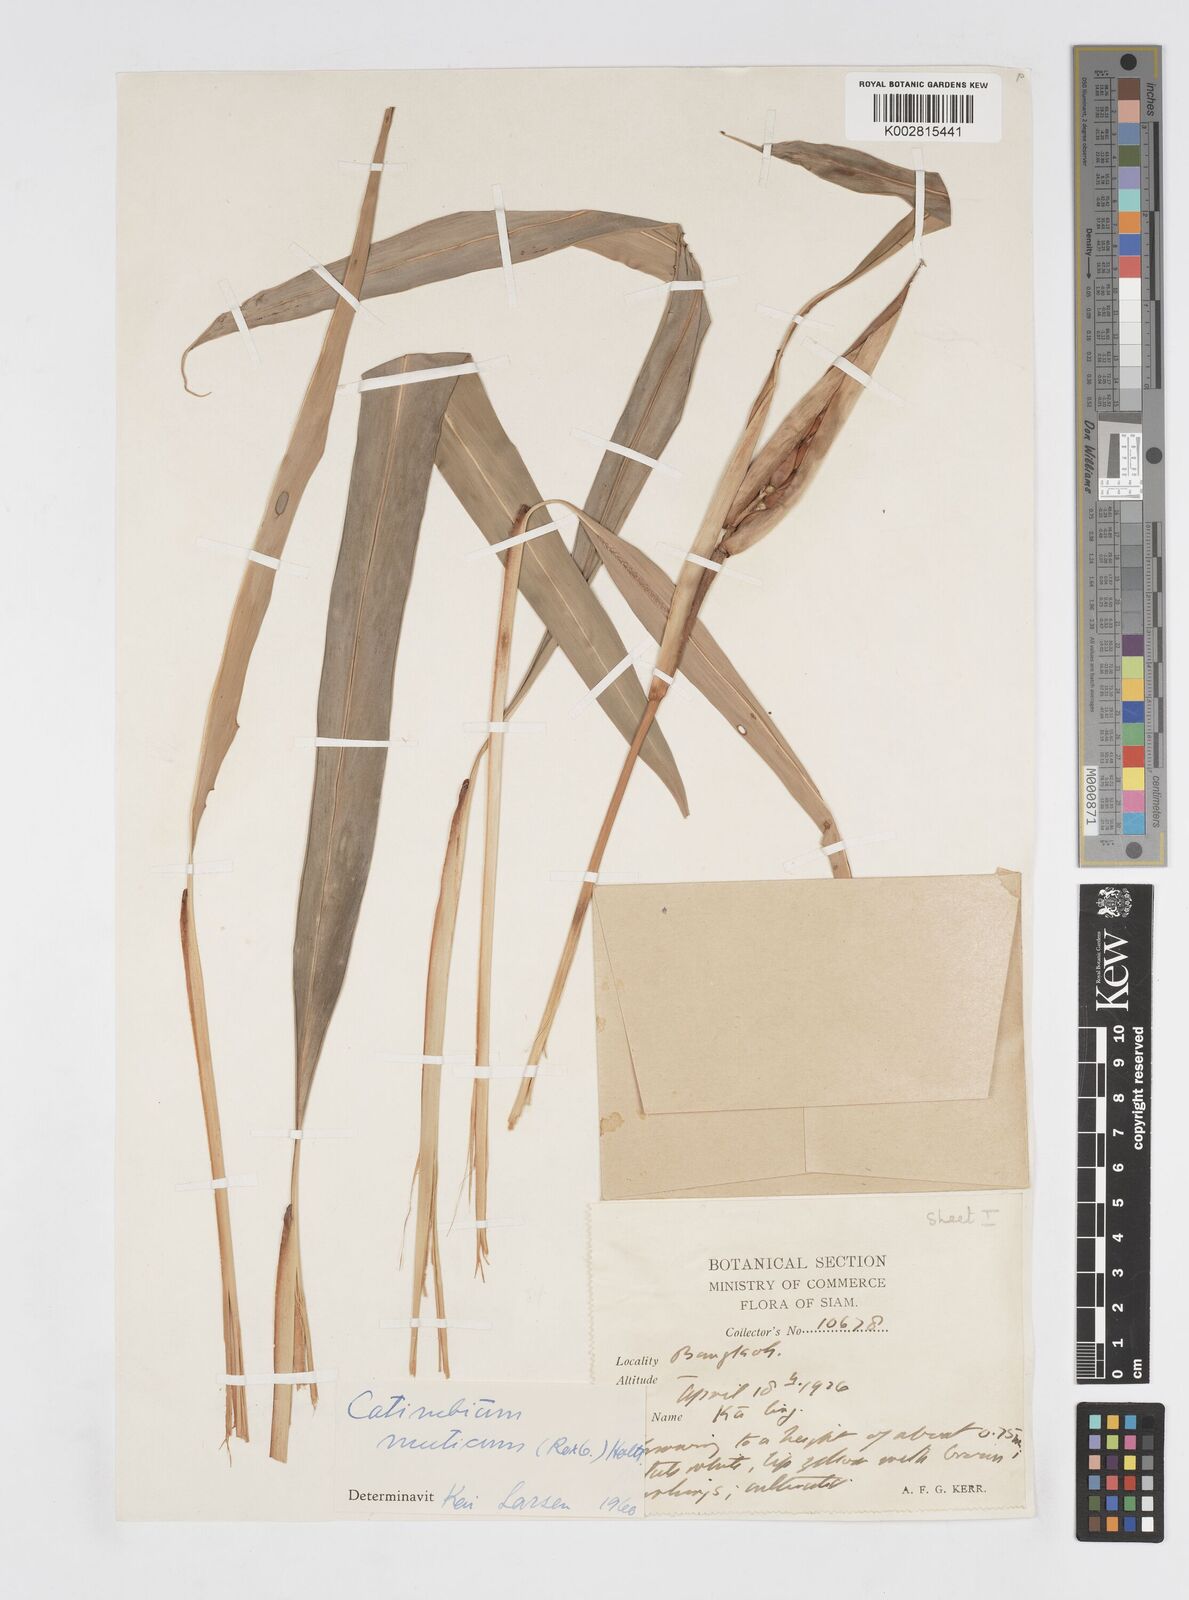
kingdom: Plantae
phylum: Tracheophyta
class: Liliopsida
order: Zingiberales
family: Zingiberaceae
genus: Alpinia
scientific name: Alpinia mutica
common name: Small shell ginger
